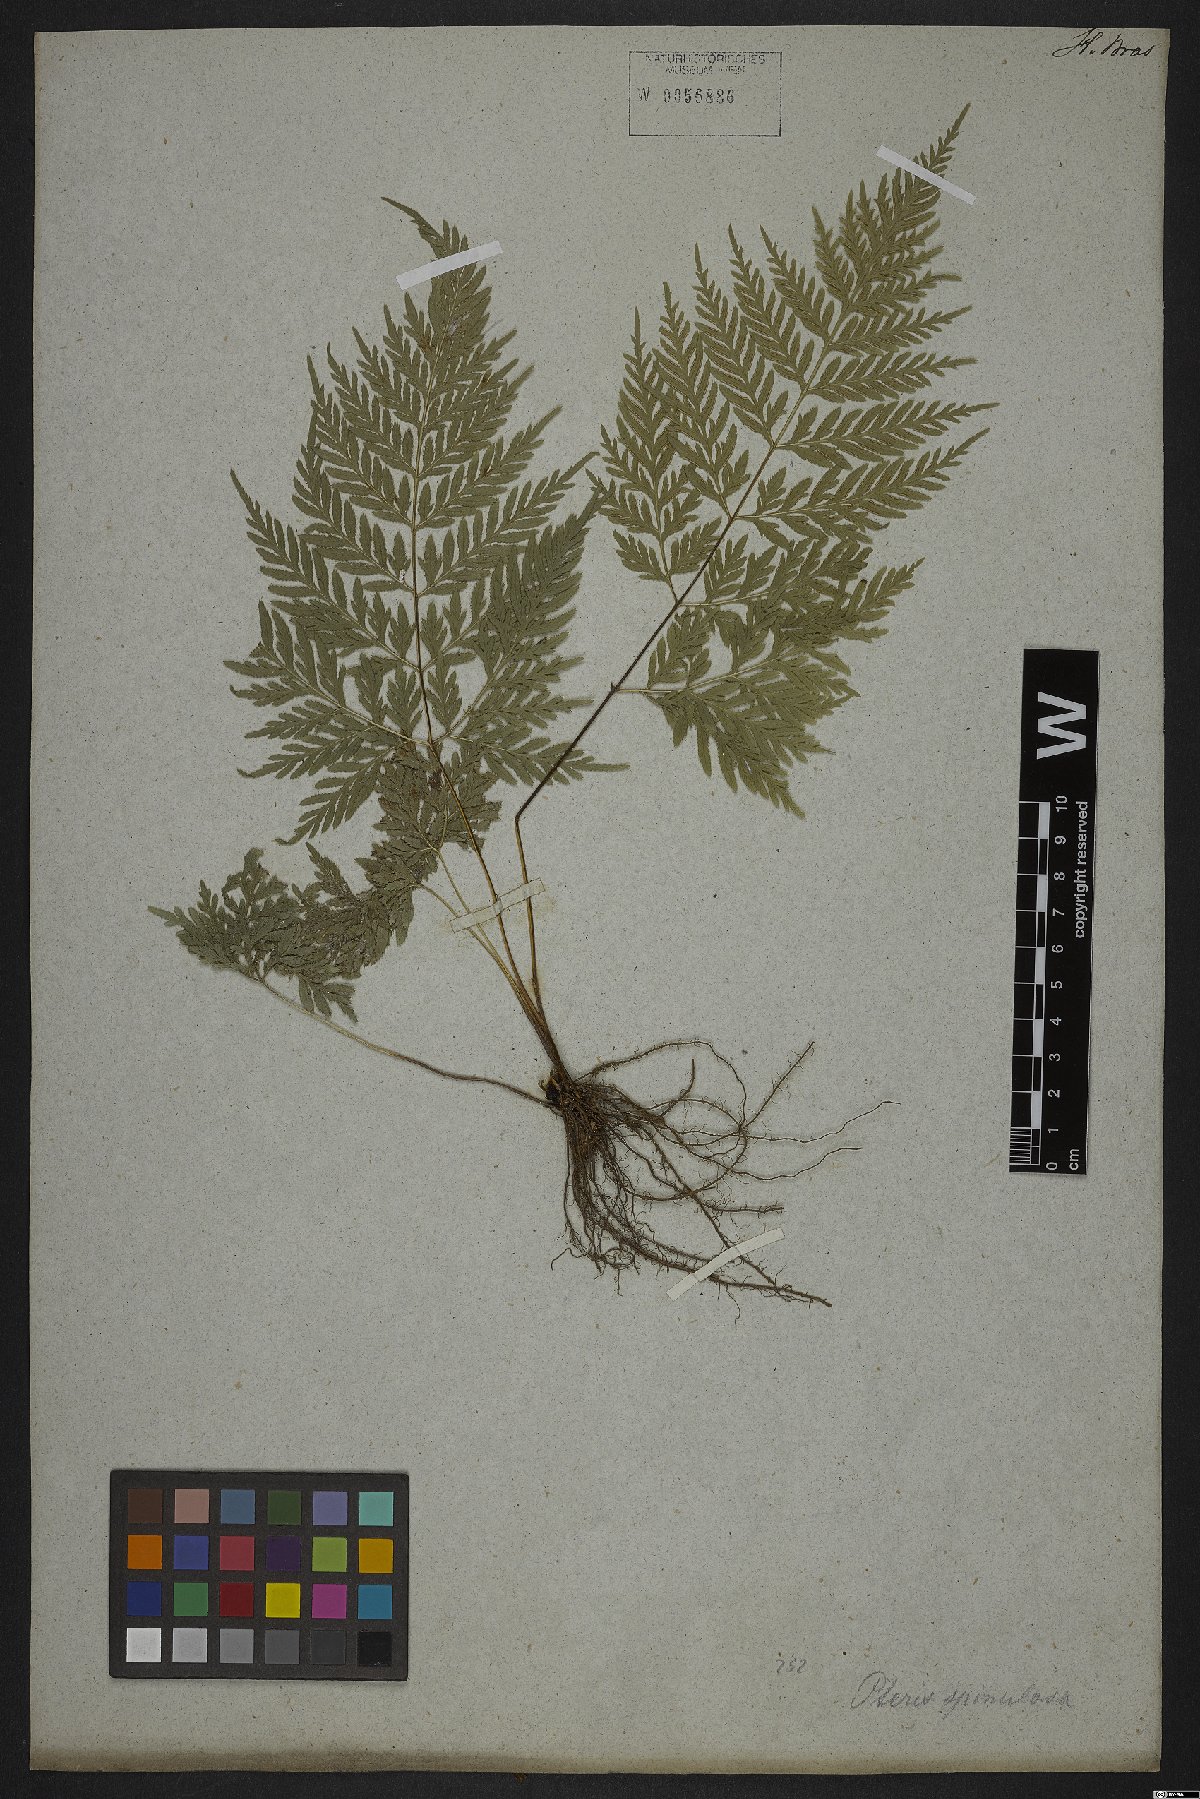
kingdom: Plantae
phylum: Tracheophyta
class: Polypodiopsida
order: Polypodiales
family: Pteridaceae
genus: Pteris
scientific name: Pteris leptophylla
